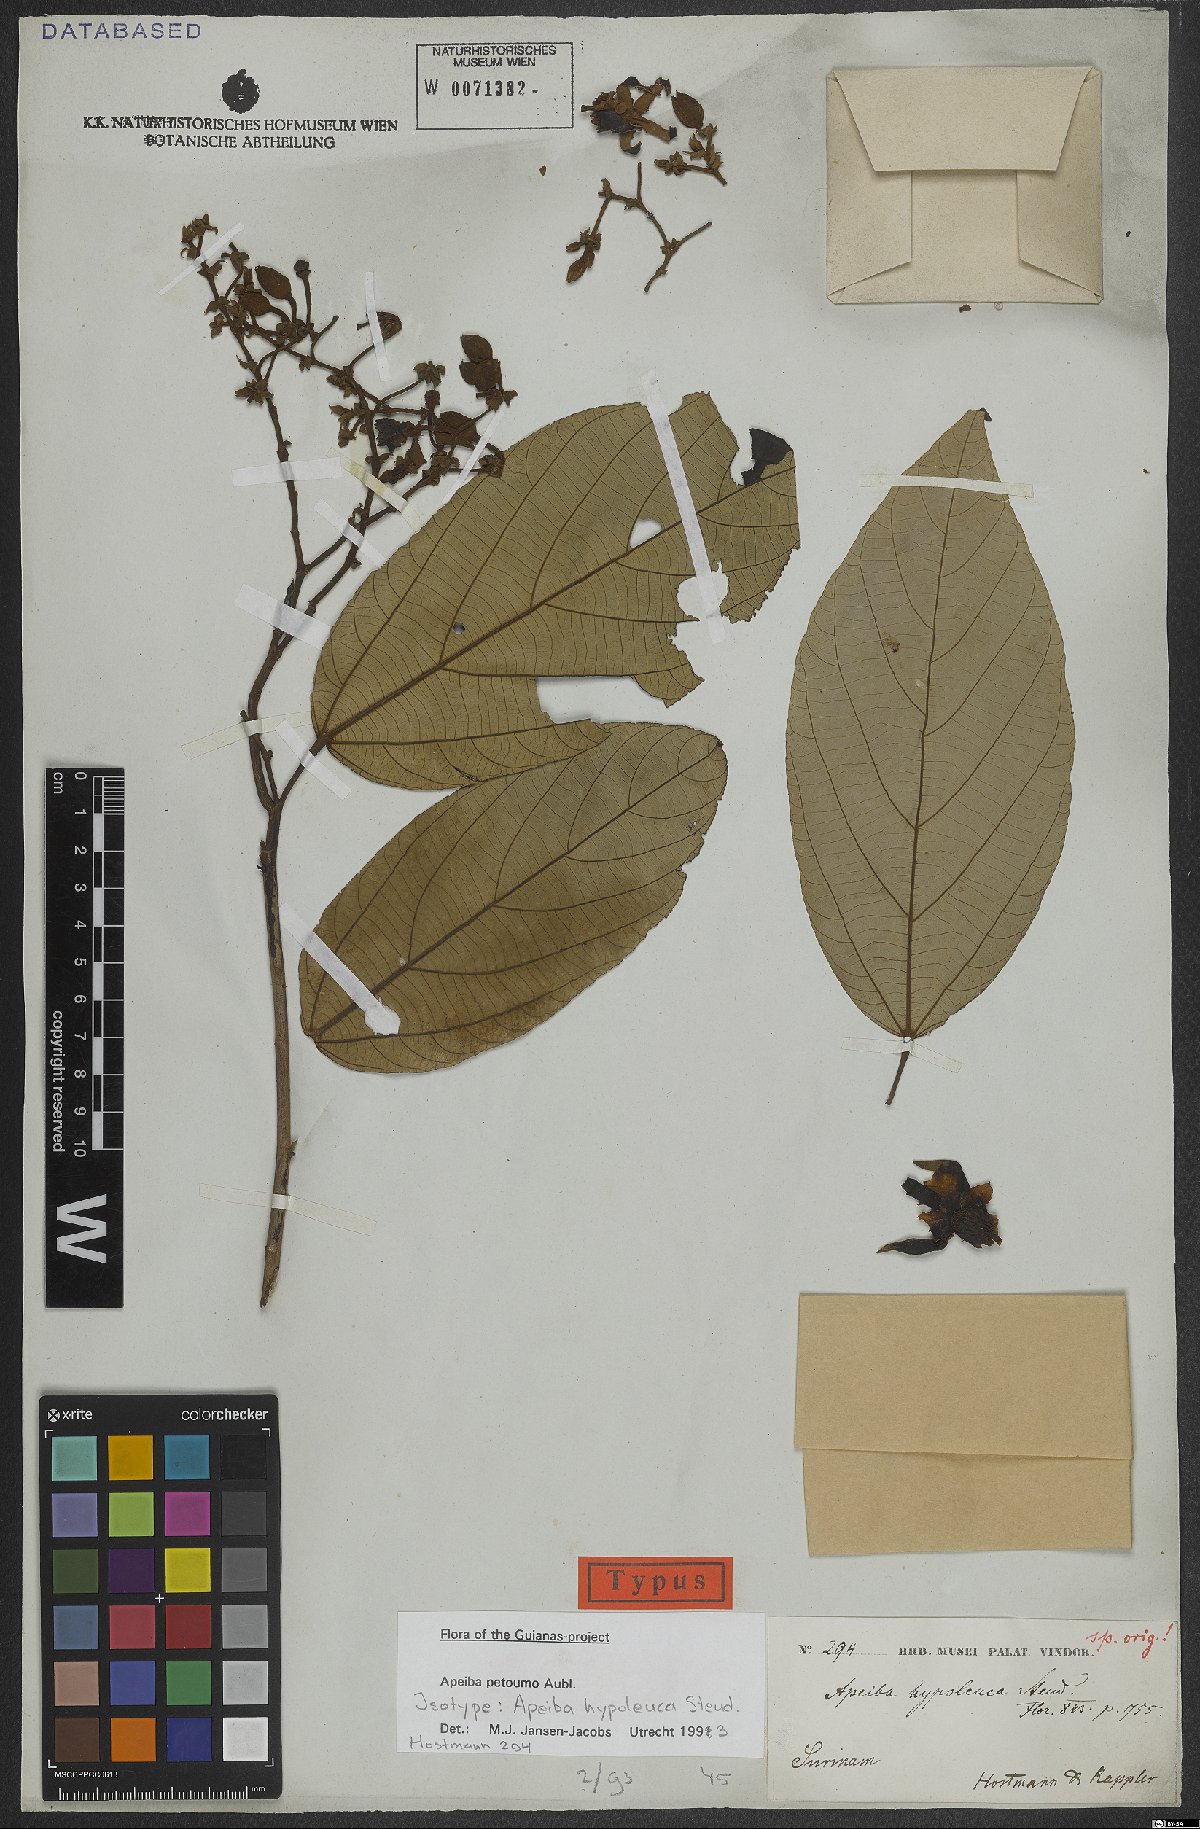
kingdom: Plantae
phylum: Tracheophyta
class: Magnoliopsida
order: Malvales
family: Malvaceae
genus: Apeiba
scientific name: Apeiba petoumo
